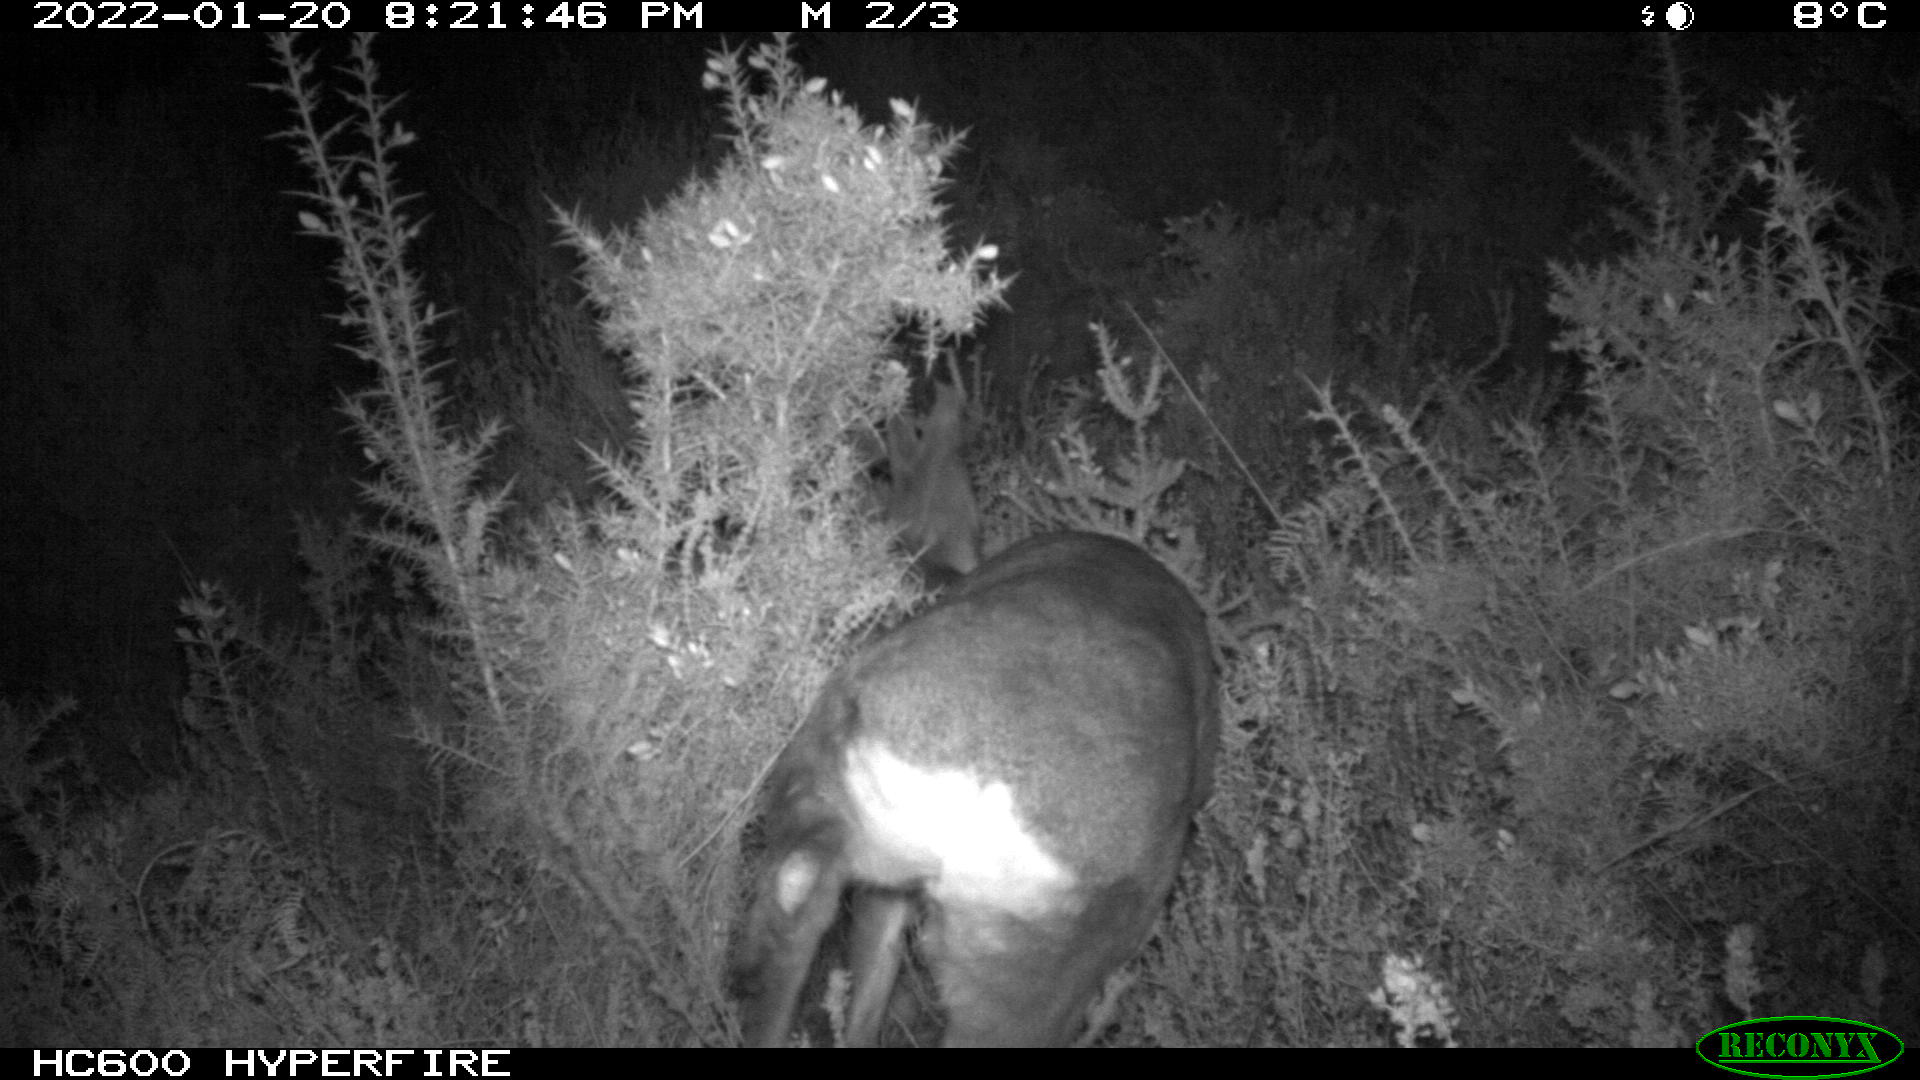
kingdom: Animalia
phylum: Chordata
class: Mammalia
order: Artiodactyla
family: Cervidae
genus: Capreolus
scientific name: Capreolus capreolus
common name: Western roe deer
